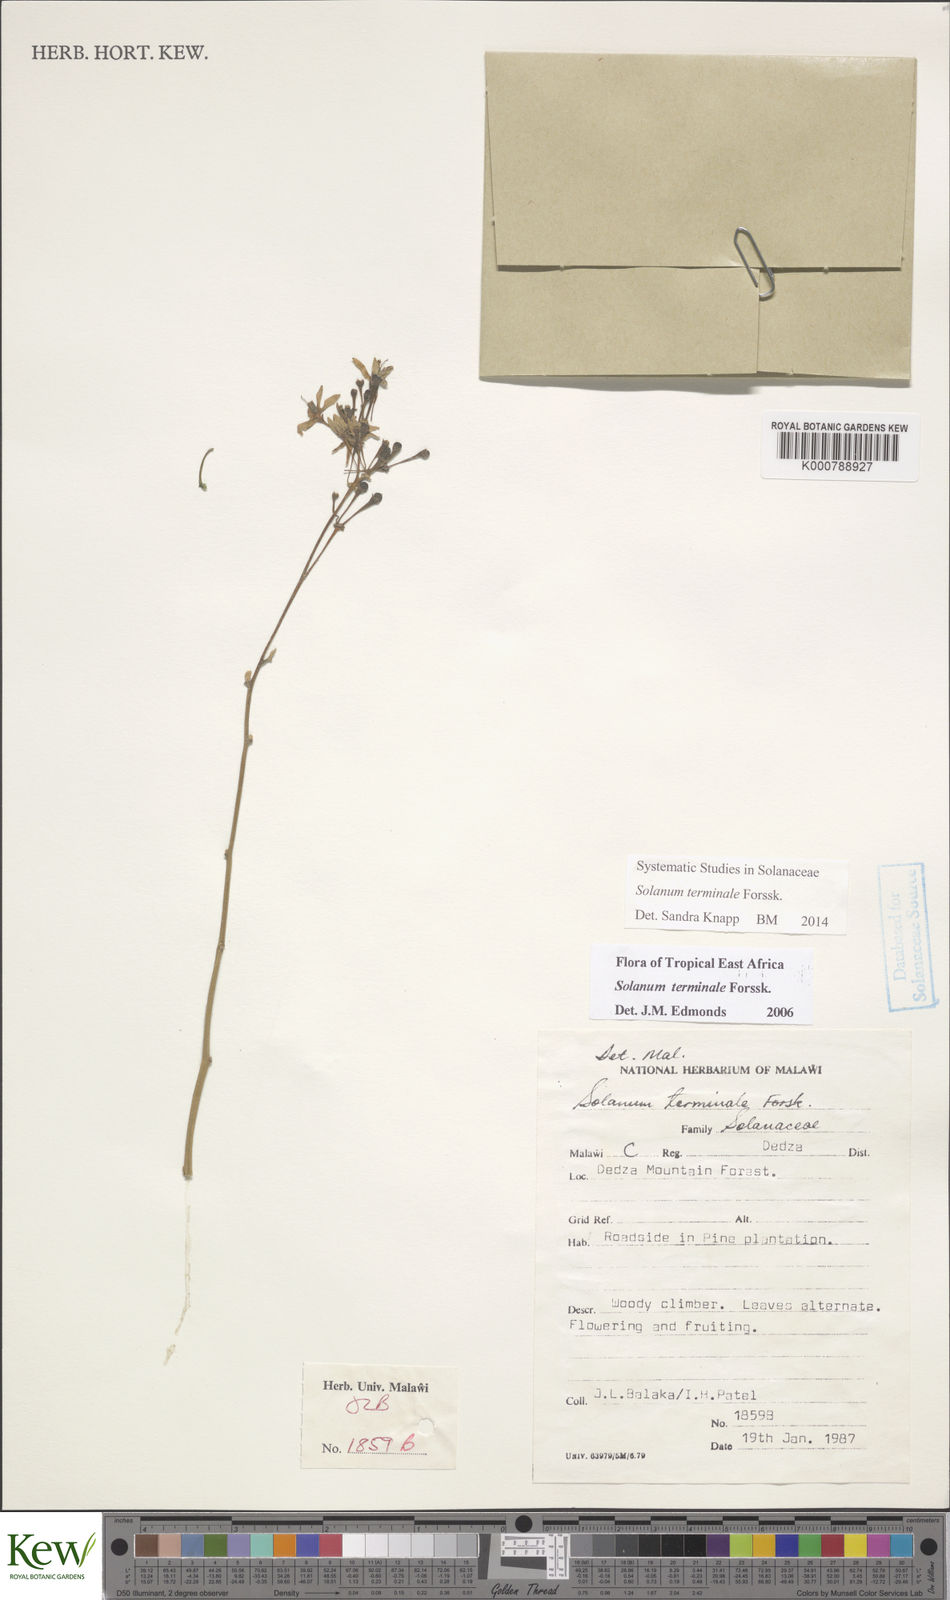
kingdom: Plantae
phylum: Tracheophyta
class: Magnoliopsida
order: Solanales
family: Solanaceae
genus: Solanum
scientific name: Solanum terminale
